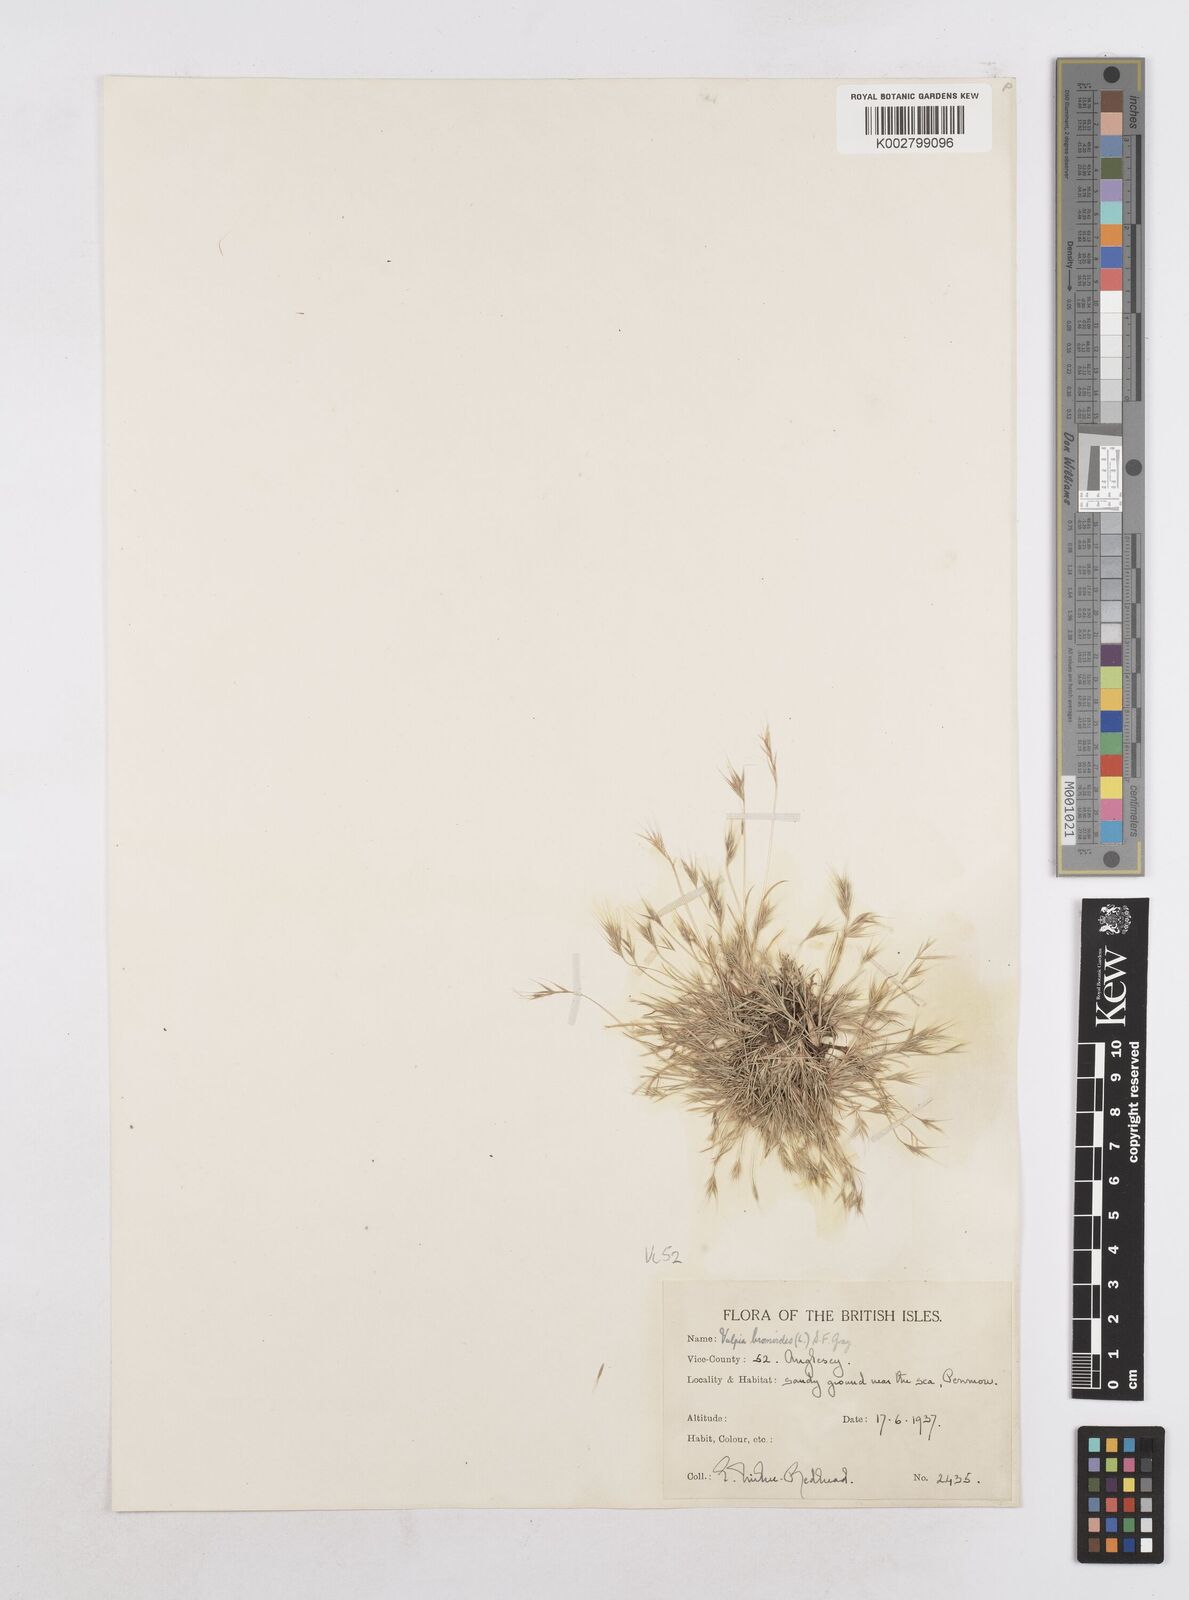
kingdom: Plantae
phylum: Tracheophyta
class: Liliopsida
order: Poales
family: Poaceae
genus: Festuca
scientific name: Festuca bromoides
